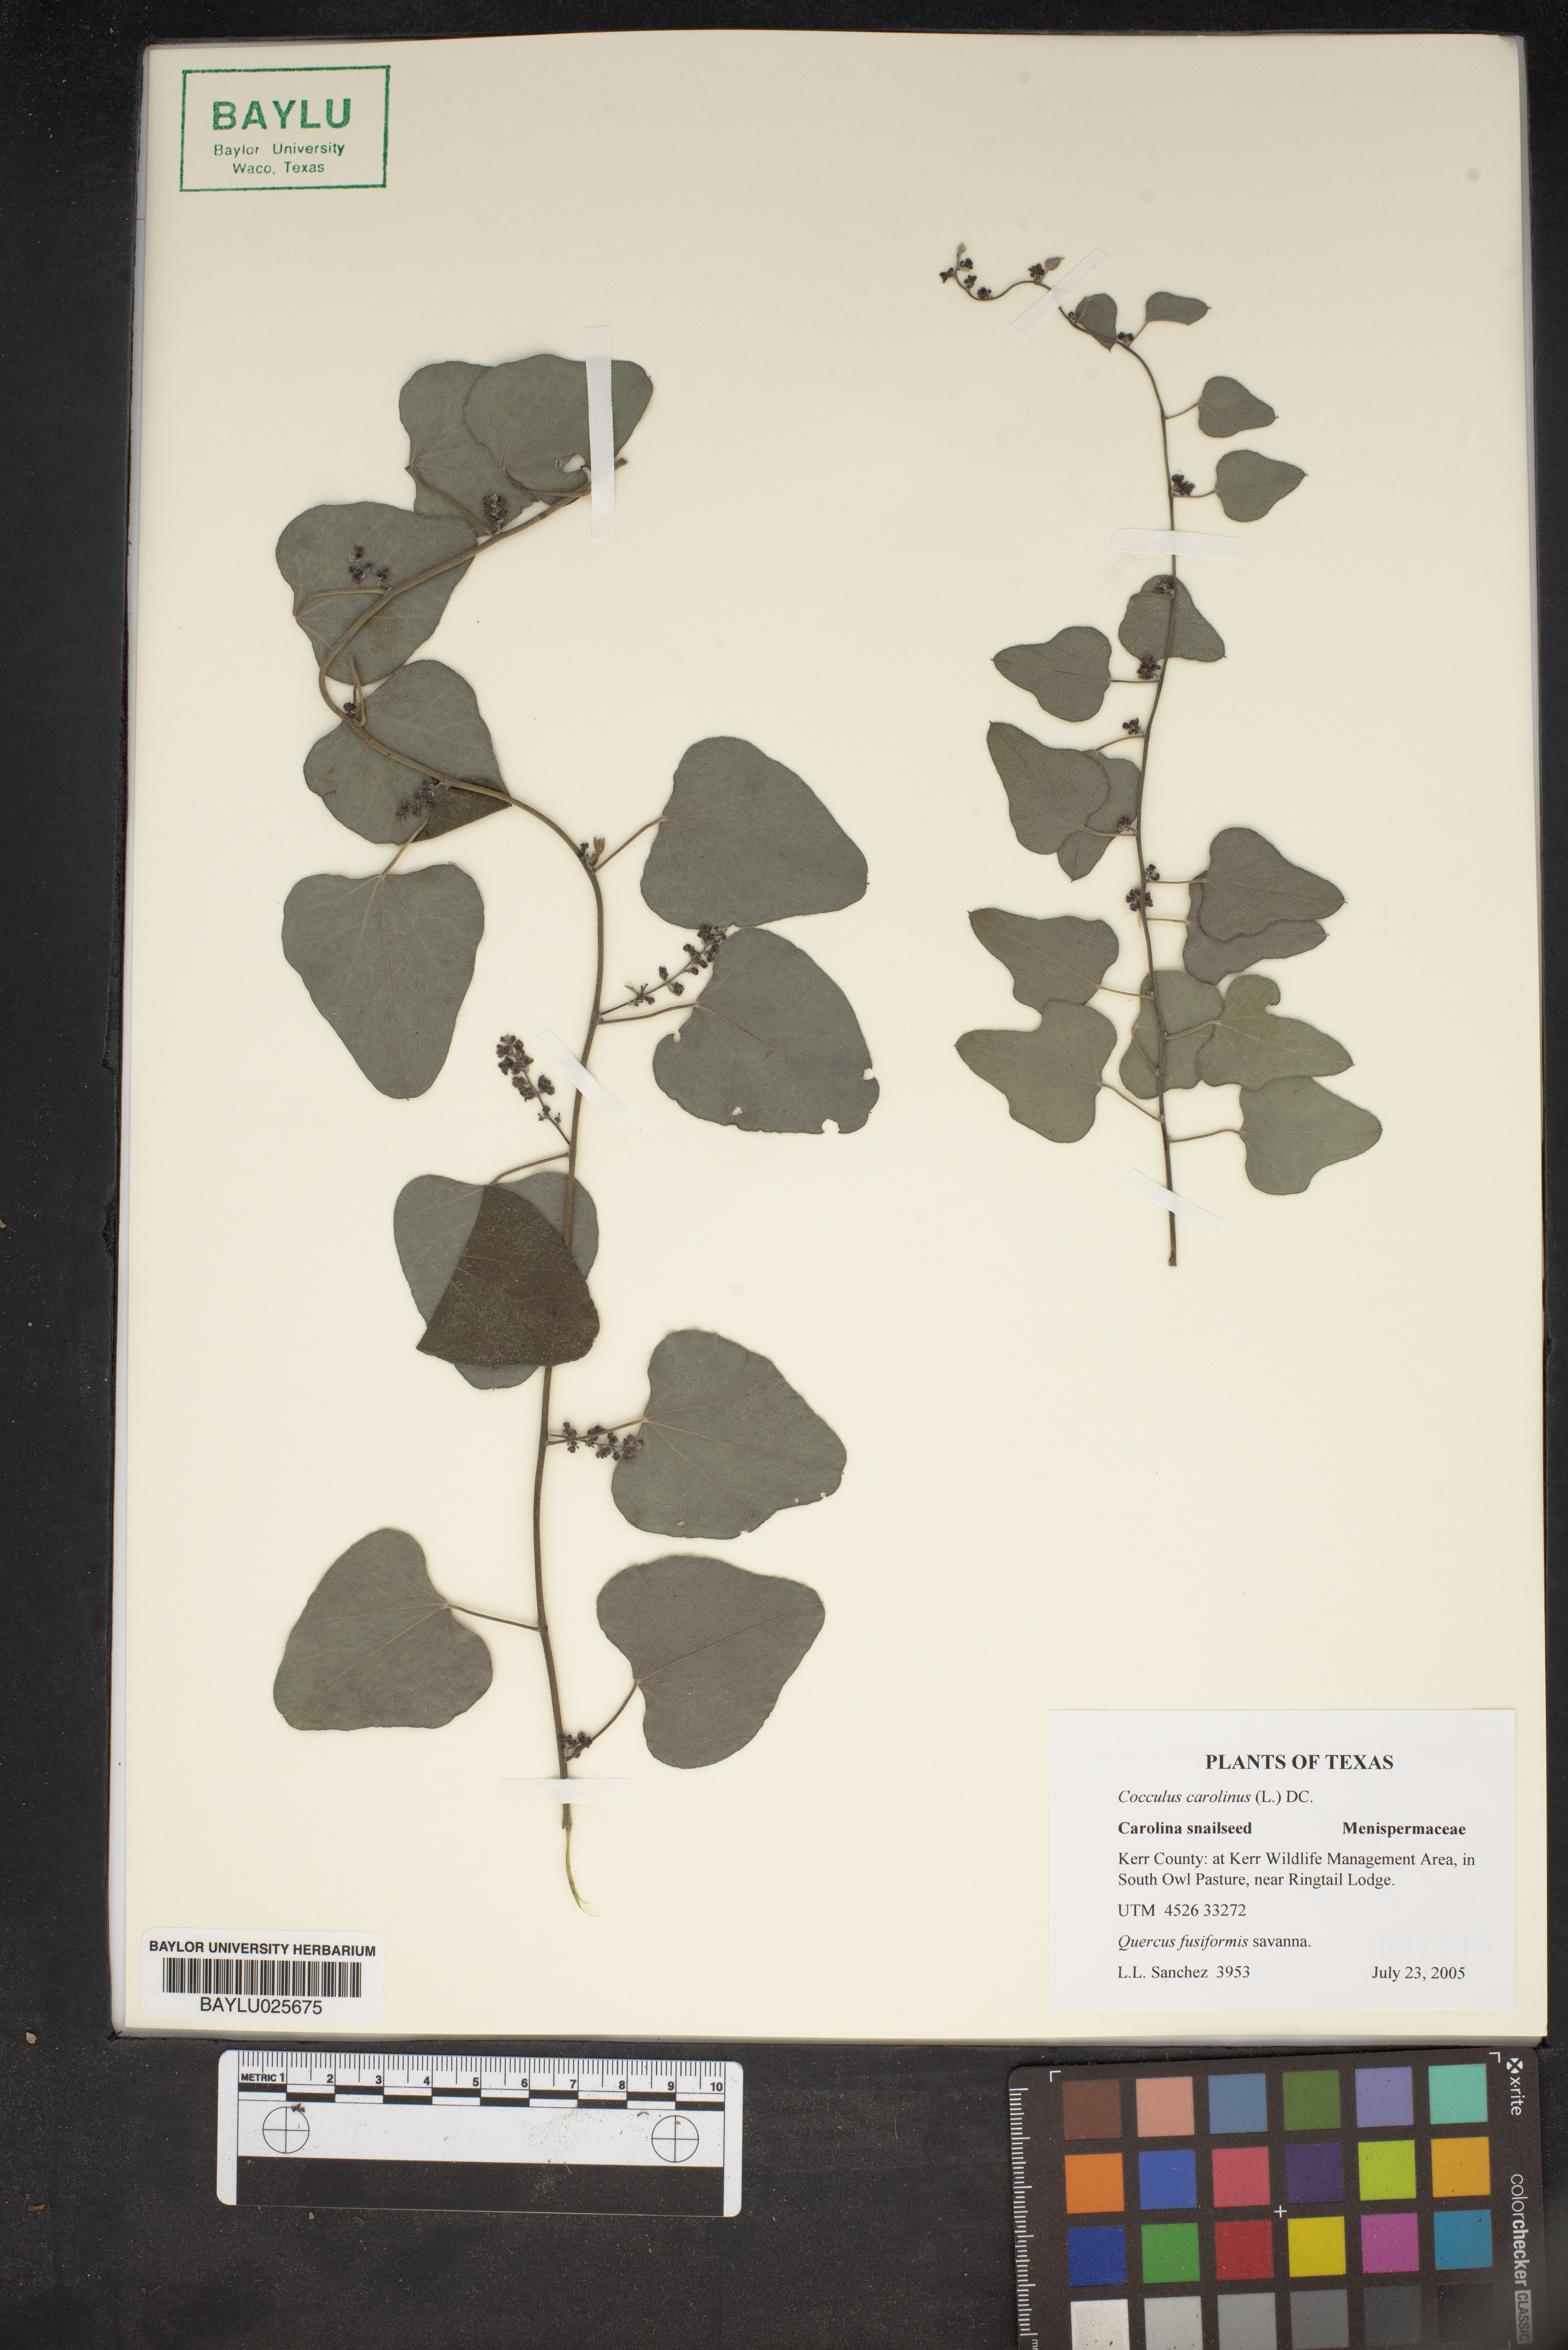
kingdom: Plantae
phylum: Tracheophyta
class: Magnoliopsida
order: Ranunculales
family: Menispermaceae
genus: Cocculus
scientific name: Cocculus carolinus
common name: Carolina moonseed
